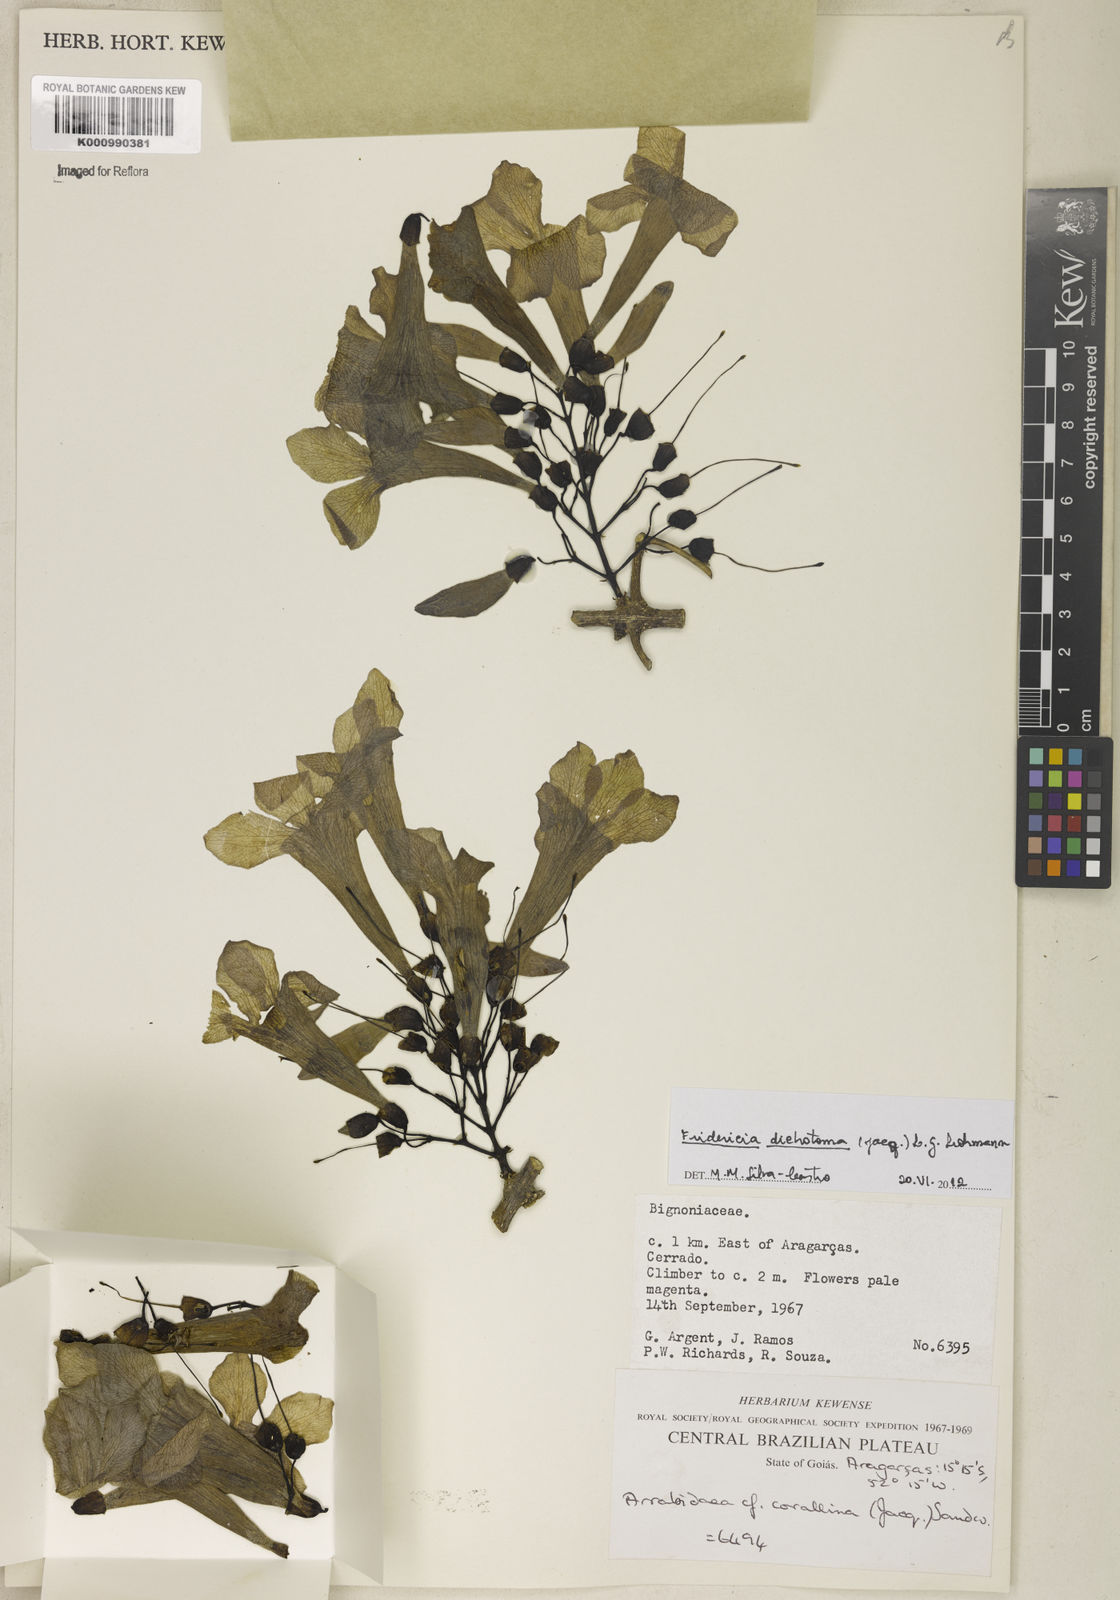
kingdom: Plantae
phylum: Tracheophyta
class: Magnoliopsida
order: Lamiales
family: Bignoniaceae
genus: Tanaecium
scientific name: Tanaecium dichotomum
